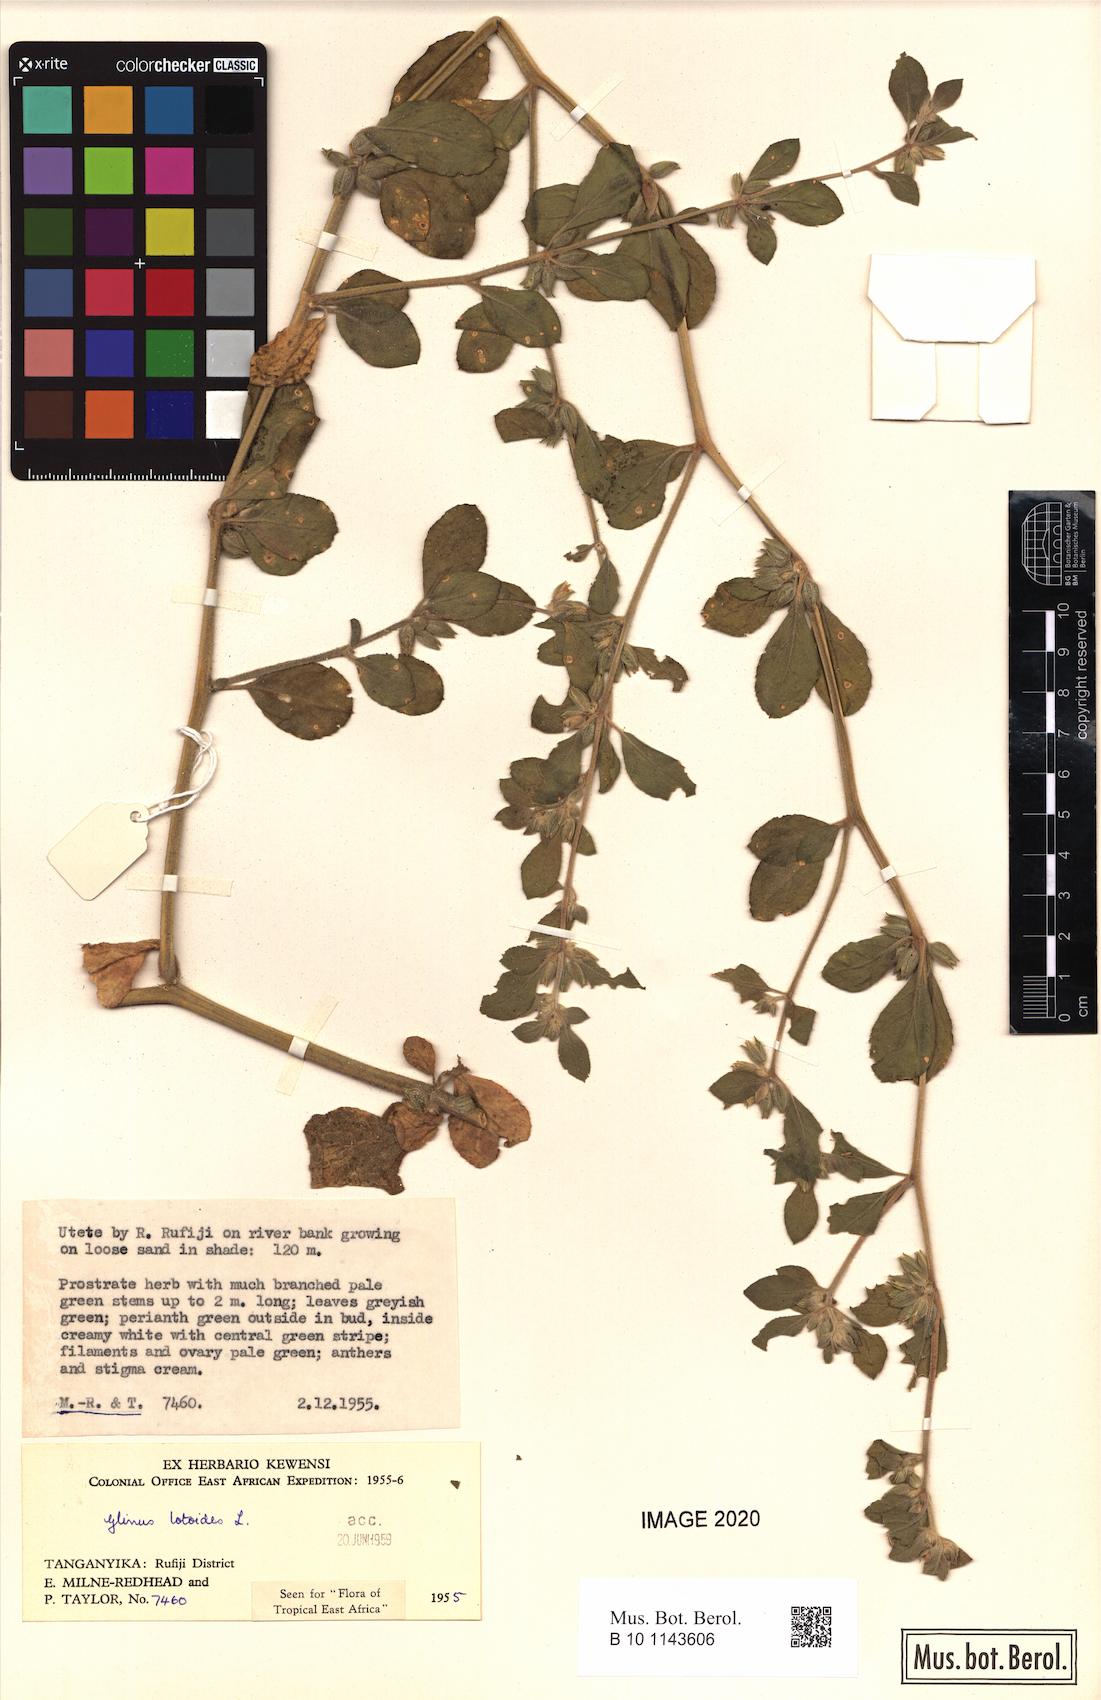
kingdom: Plantae
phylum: Tracheophyta
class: Magnoliopsida
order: Caryophyllales
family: Molluginaceae
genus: Glinus
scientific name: Glinus lotoides
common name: Lotus sweetjuice
